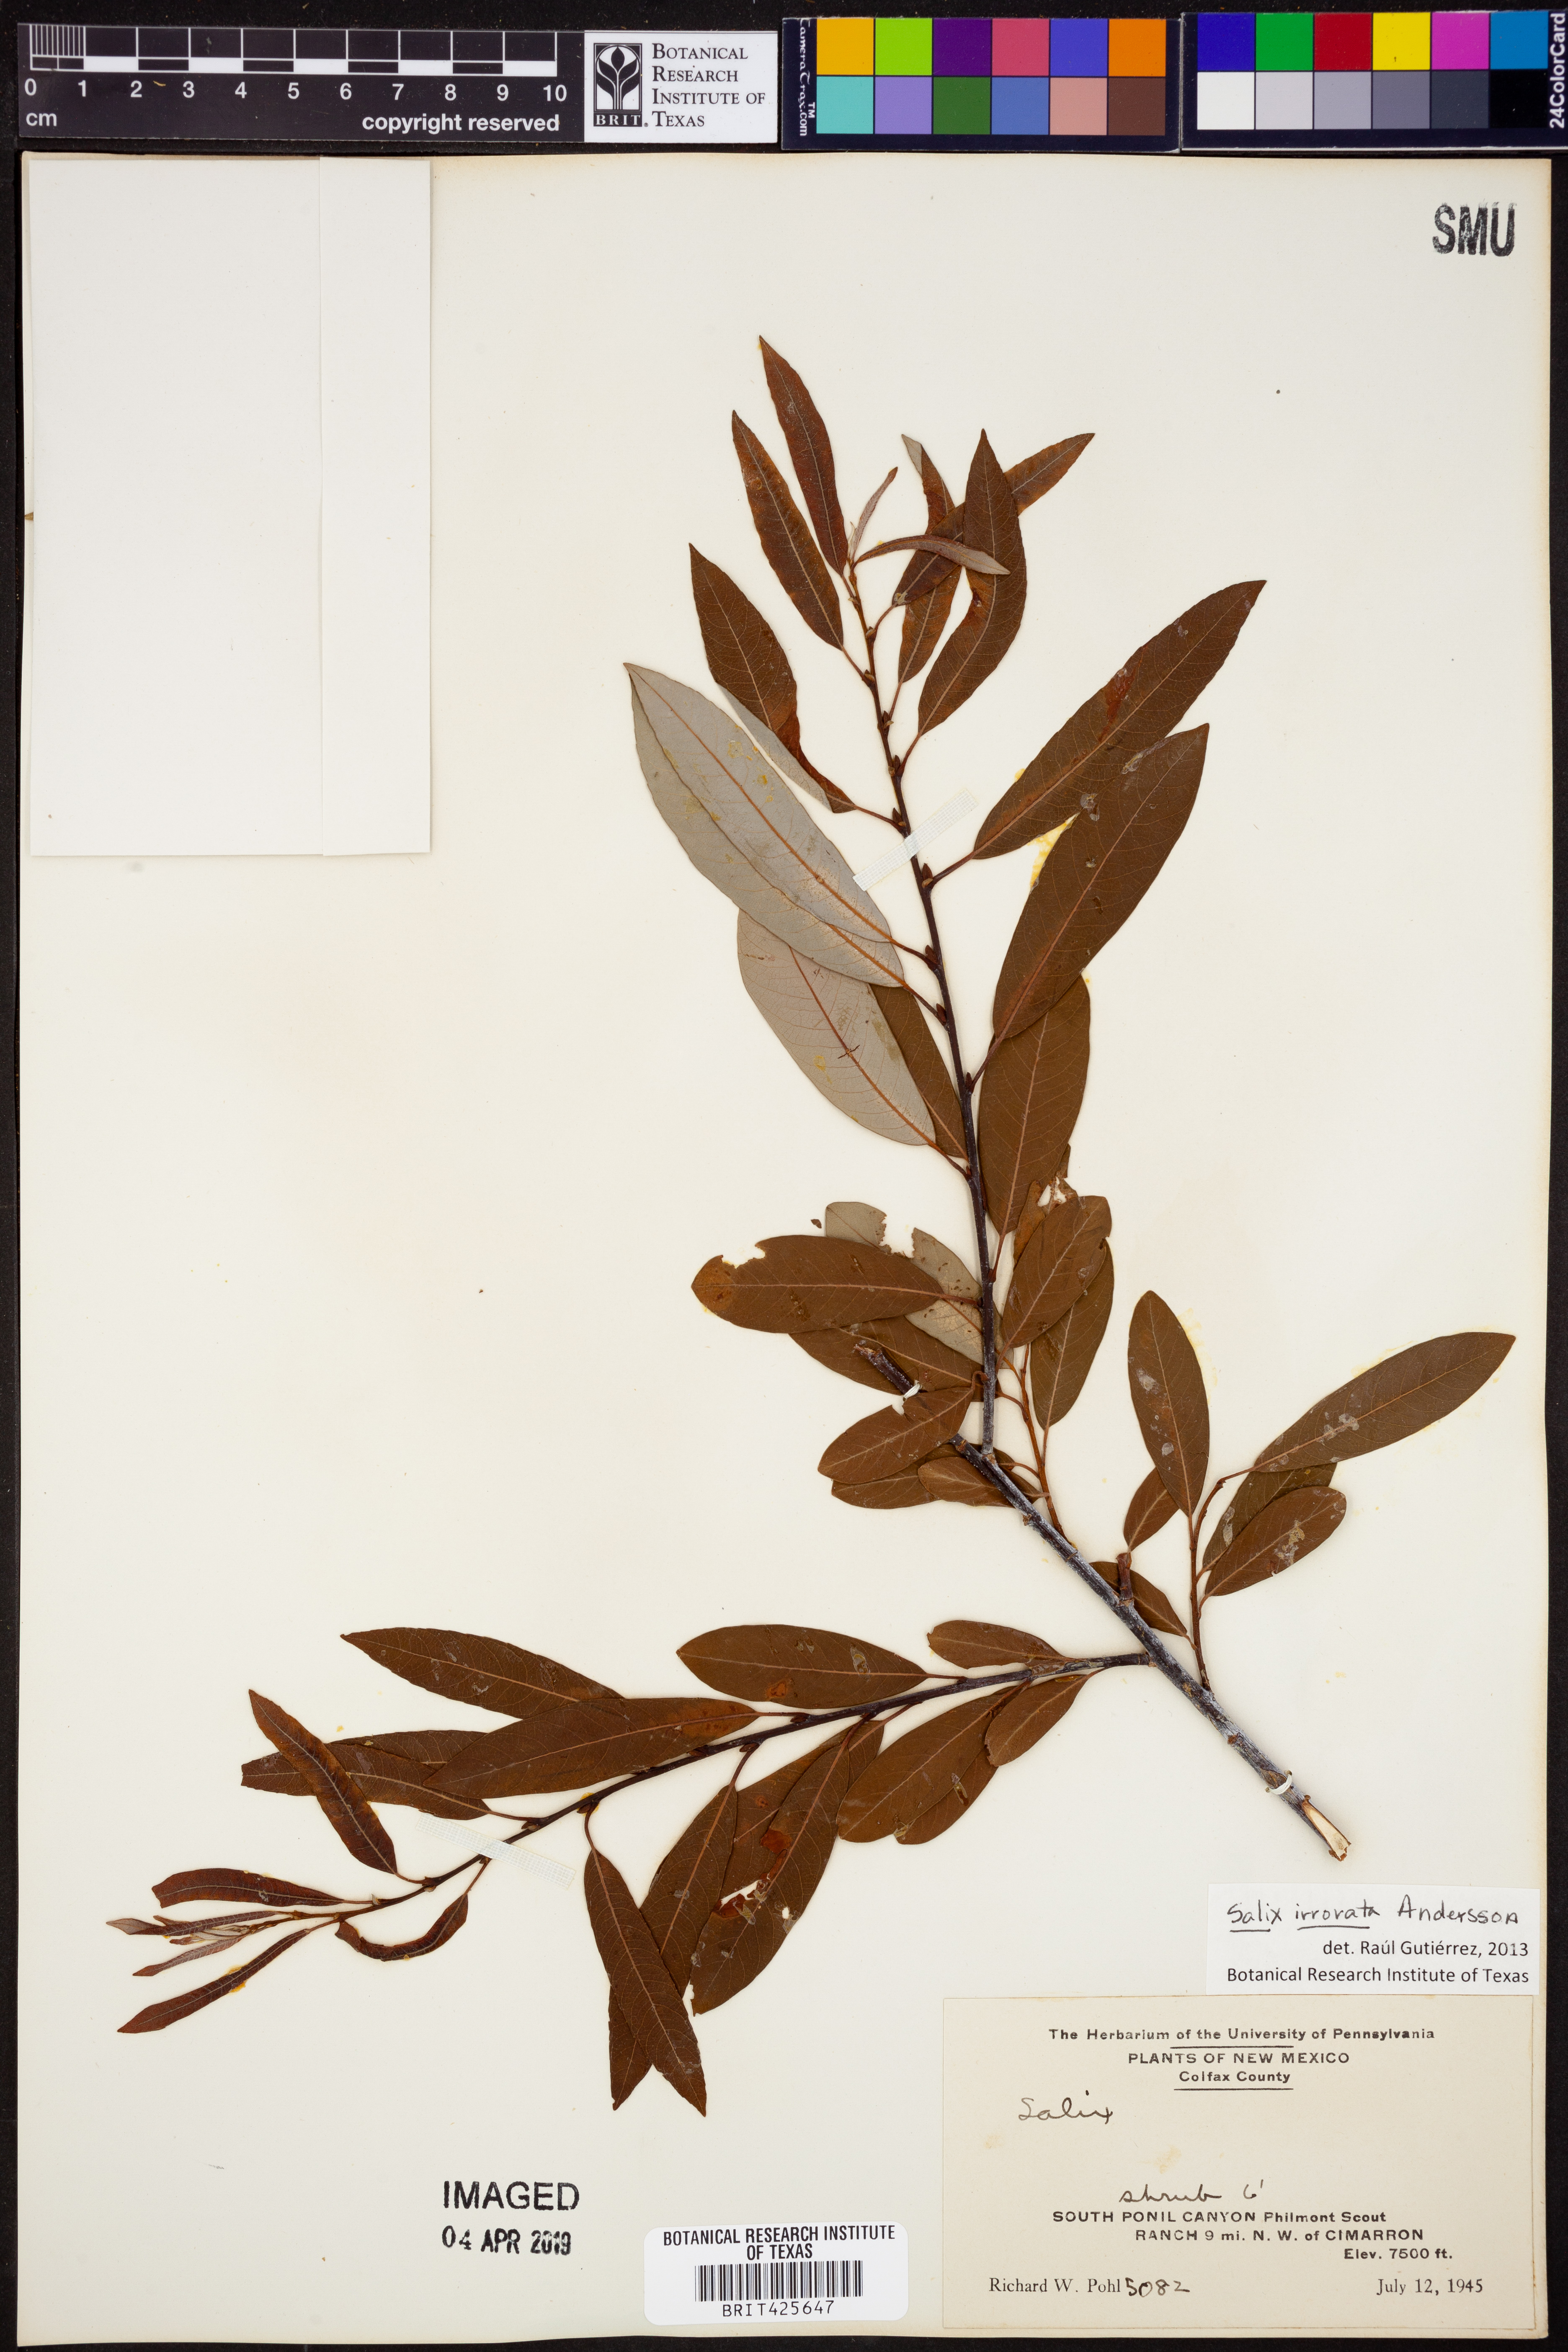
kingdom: Plantae
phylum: Tracheophyta
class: Magnoliopsida
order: Malpighiales
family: Salicaceae
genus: Salix
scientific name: Salix irrorata
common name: Blue-stem willow
